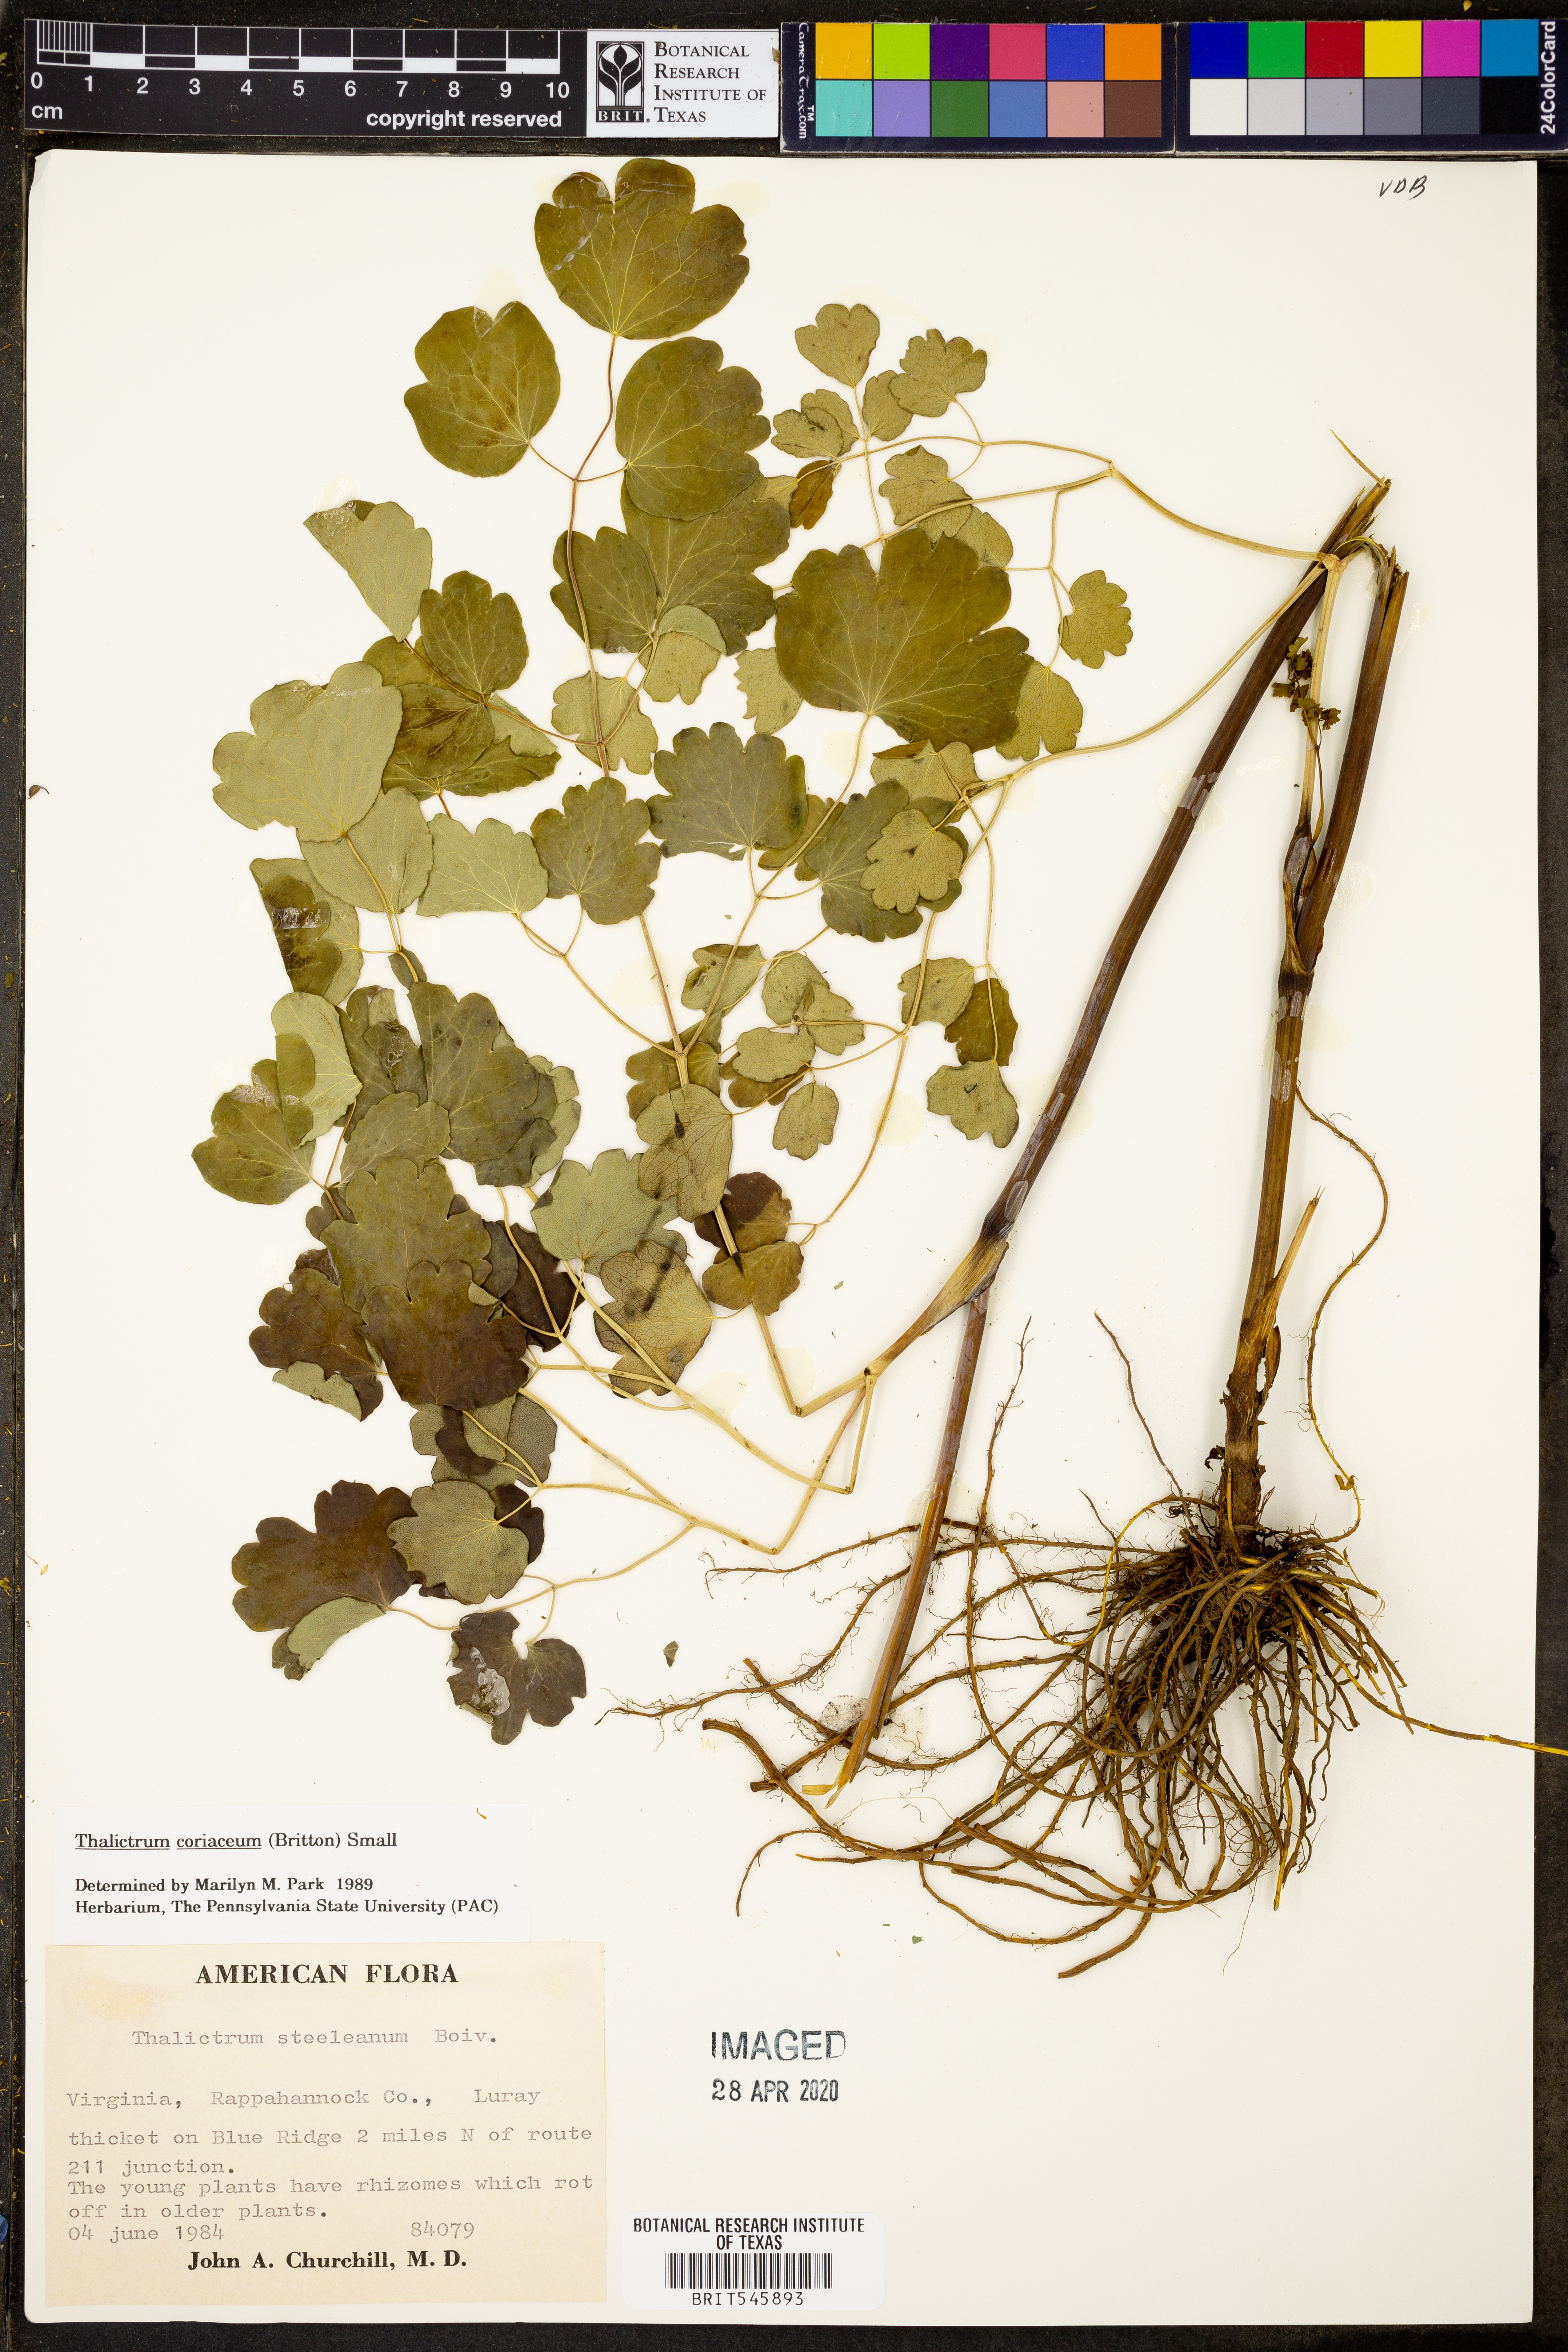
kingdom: Plantae
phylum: Tracheophyta
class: Magnoliopsida
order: Ranunculales
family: Ranunculaceae
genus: Thalictrum
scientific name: Thalictrum coriaceum
